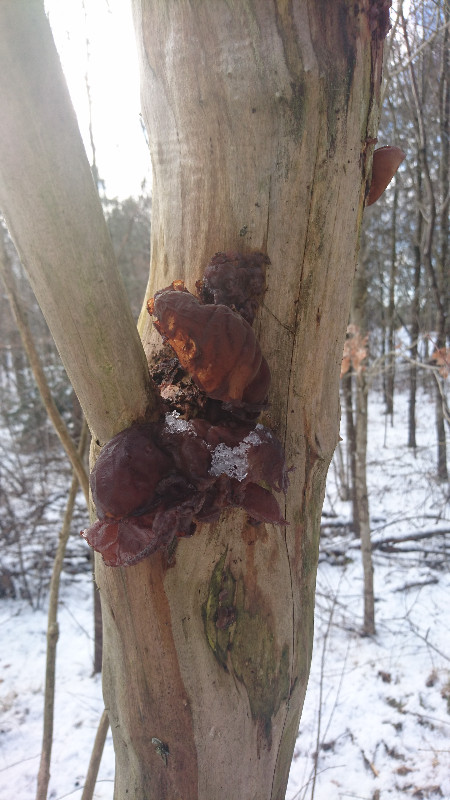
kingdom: Fungi
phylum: Basidiomycota
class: Agaricomycetes
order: Auriculariales
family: Auriculariaceae
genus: Auricularia
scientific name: Auricularia auricula-judae
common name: almindelig judasøre
